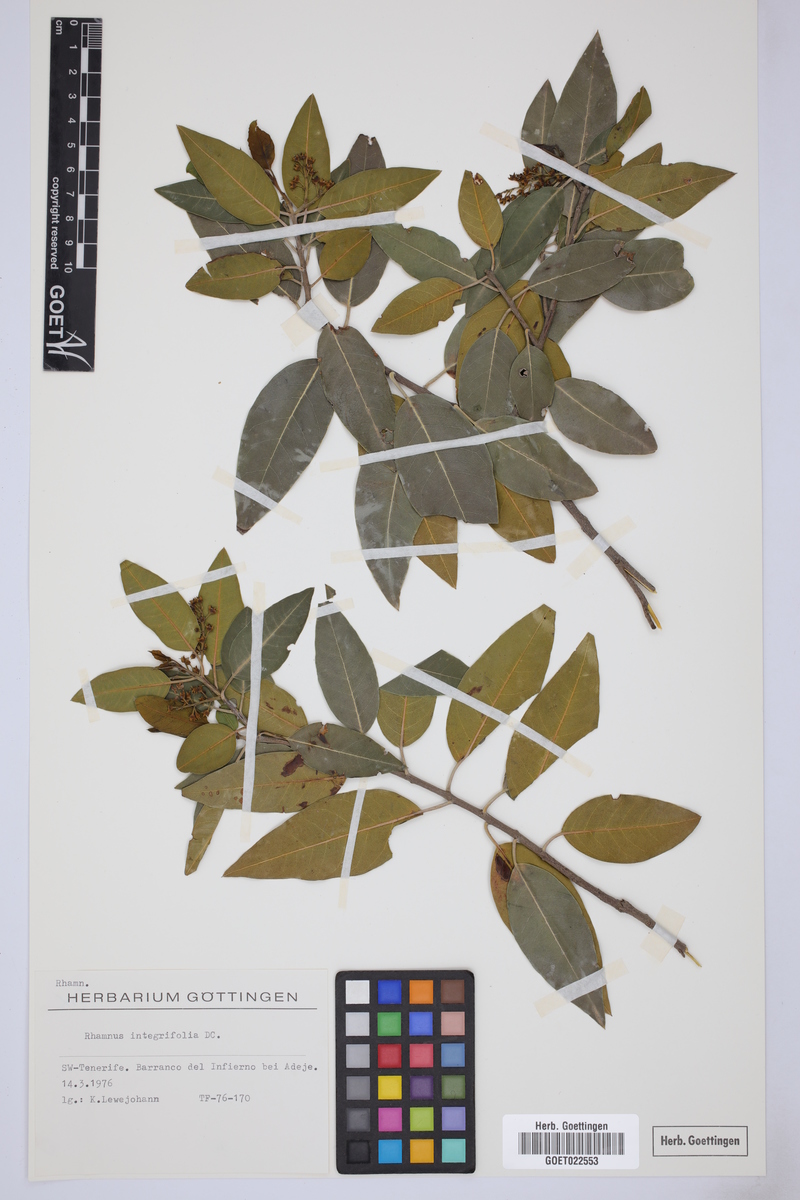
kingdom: Plantae
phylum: Tracheophyta
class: Magnoliopsida
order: Rosales
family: Rhamnaceae
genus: Rhamnus
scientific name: Rhamnus integrifolia
